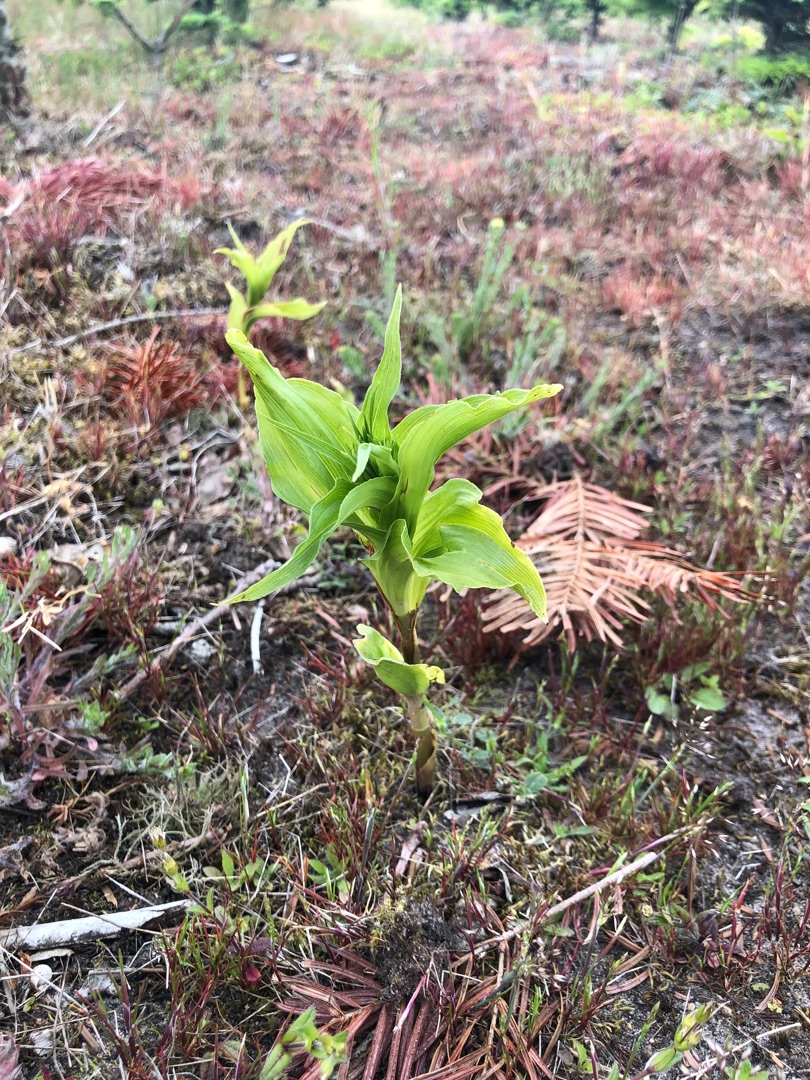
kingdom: Plantae
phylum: Tracheophyta
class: Liliopsida
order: Asparagales
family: Orchidaceae
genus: Epipactis
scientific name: Epipactis helleborine
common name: Skov-hullæbe
